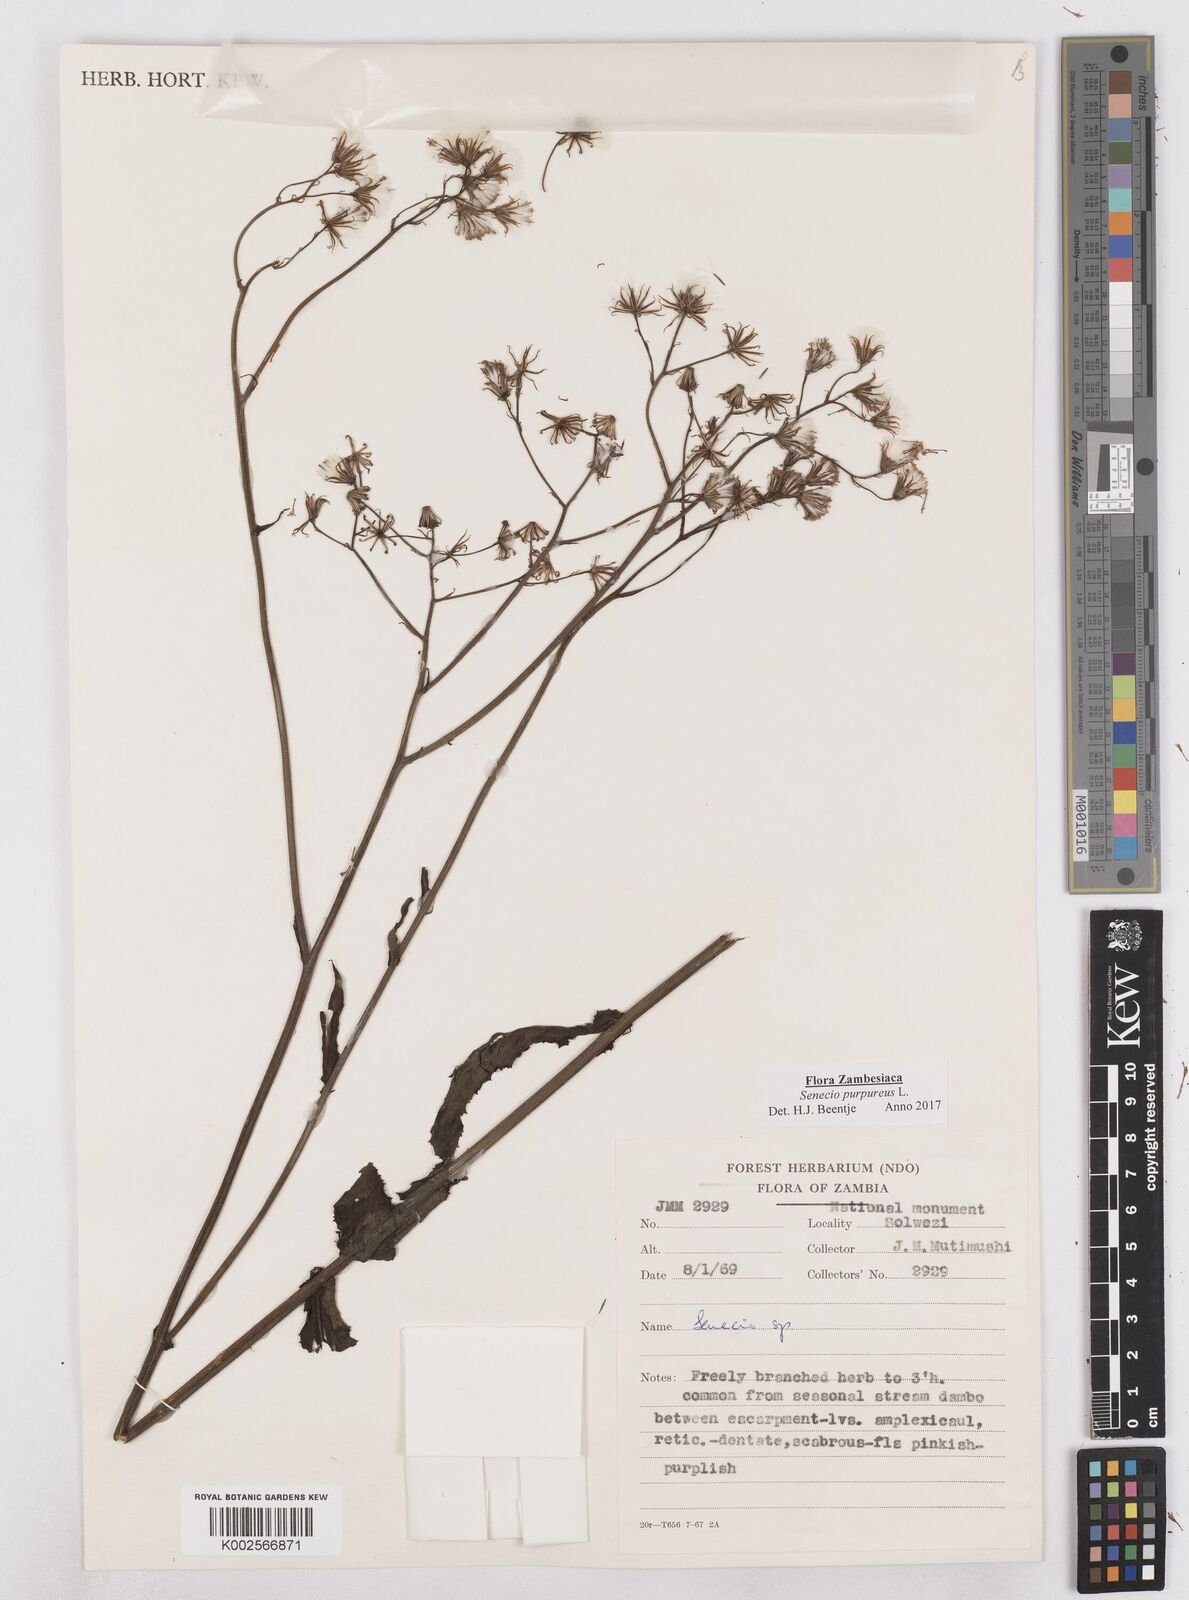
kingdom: Plantae
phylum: Tracheophyta
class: Magnoliopsida
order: Asterales
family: Asteraceae
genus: Senecio
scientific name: Senecio purpureus
